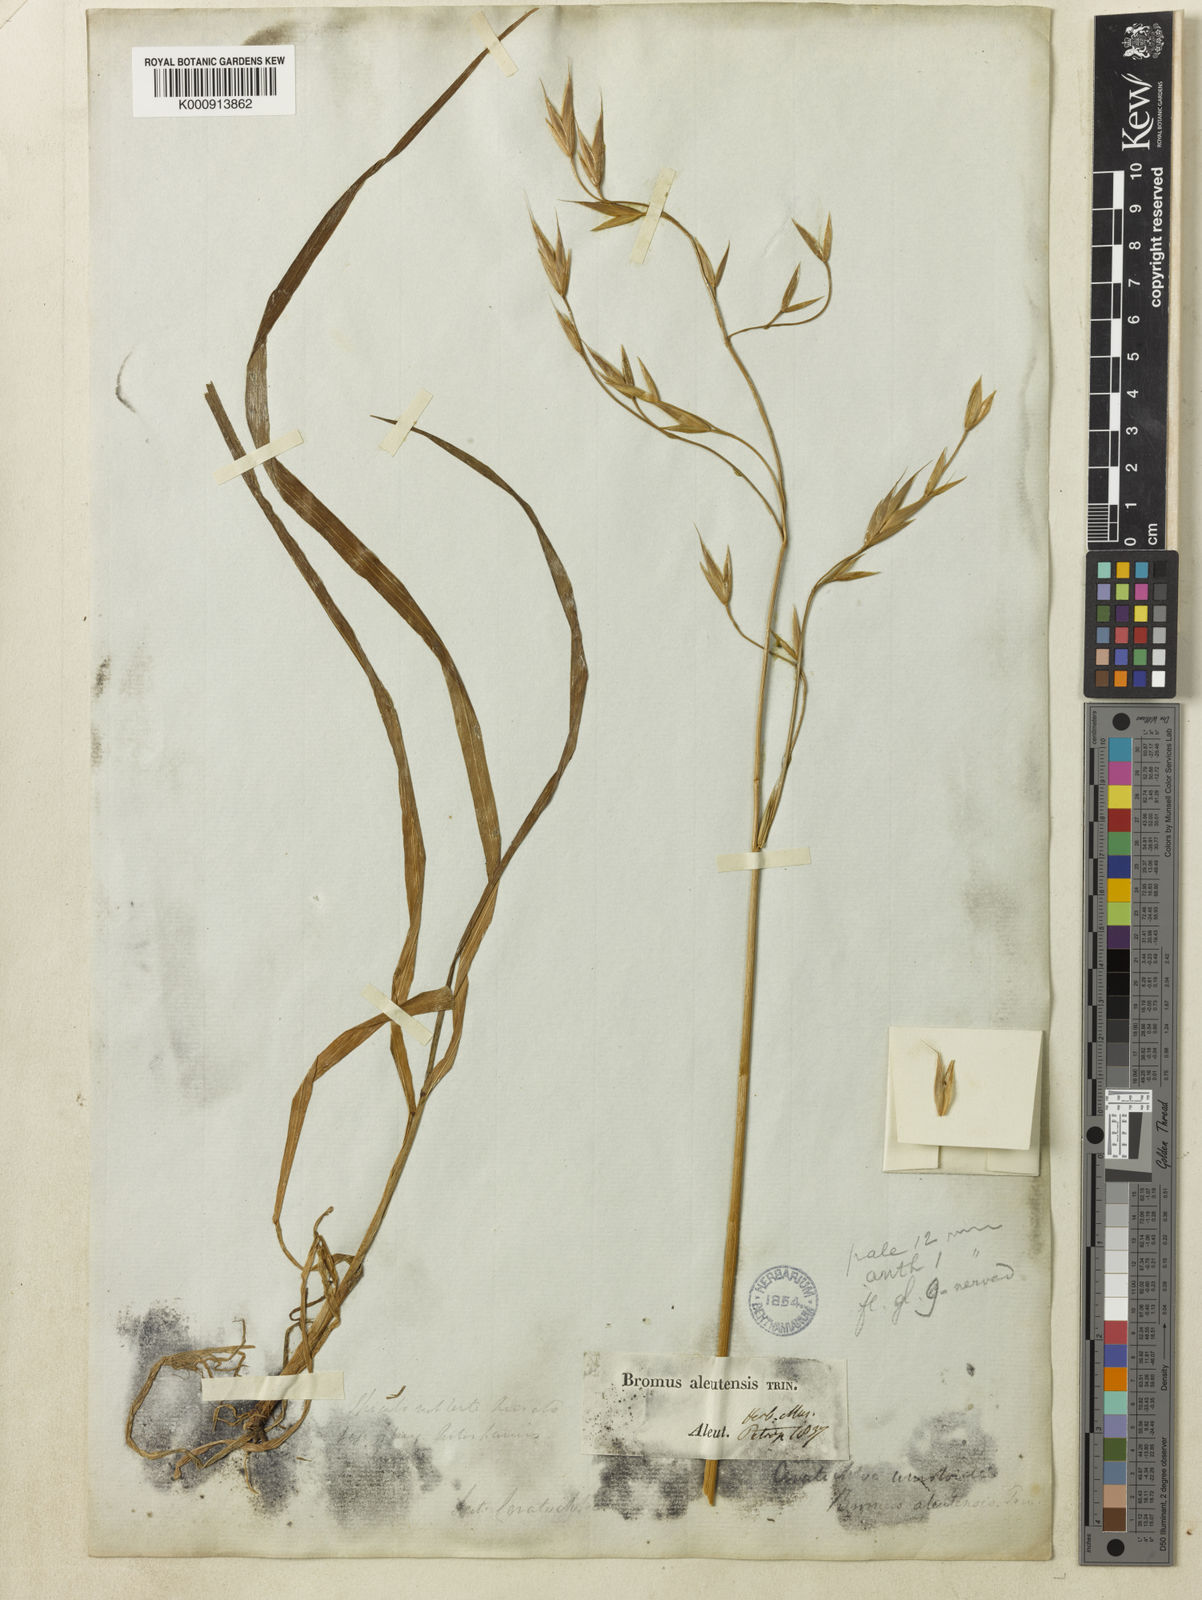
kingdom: Plantae
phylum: Tracheophyta
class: Liliopsida
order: Poales
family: Poaceae
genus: Bromus
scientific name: Bromus sitchensis
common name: Sitka brome
